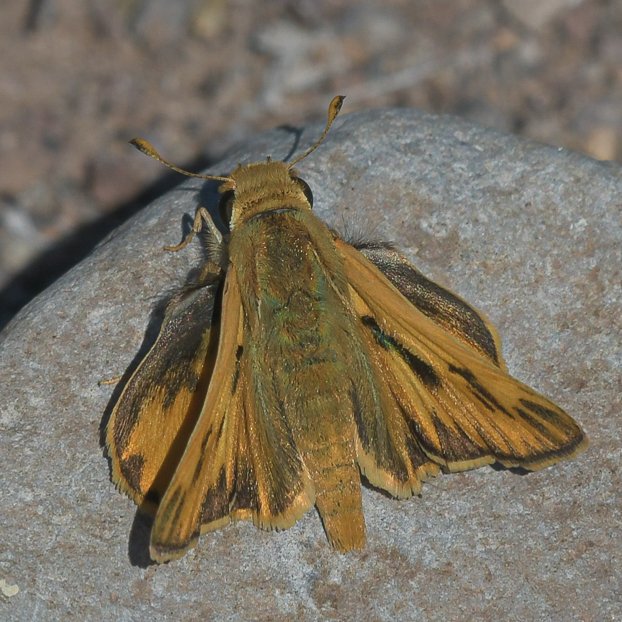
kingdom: Animalia
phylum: Arthropoda
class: Insecta
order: Lepidoptera
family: Hesperiidae
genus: Hylephila
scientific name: Hylephila phyleus
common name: Fiery Skipper
